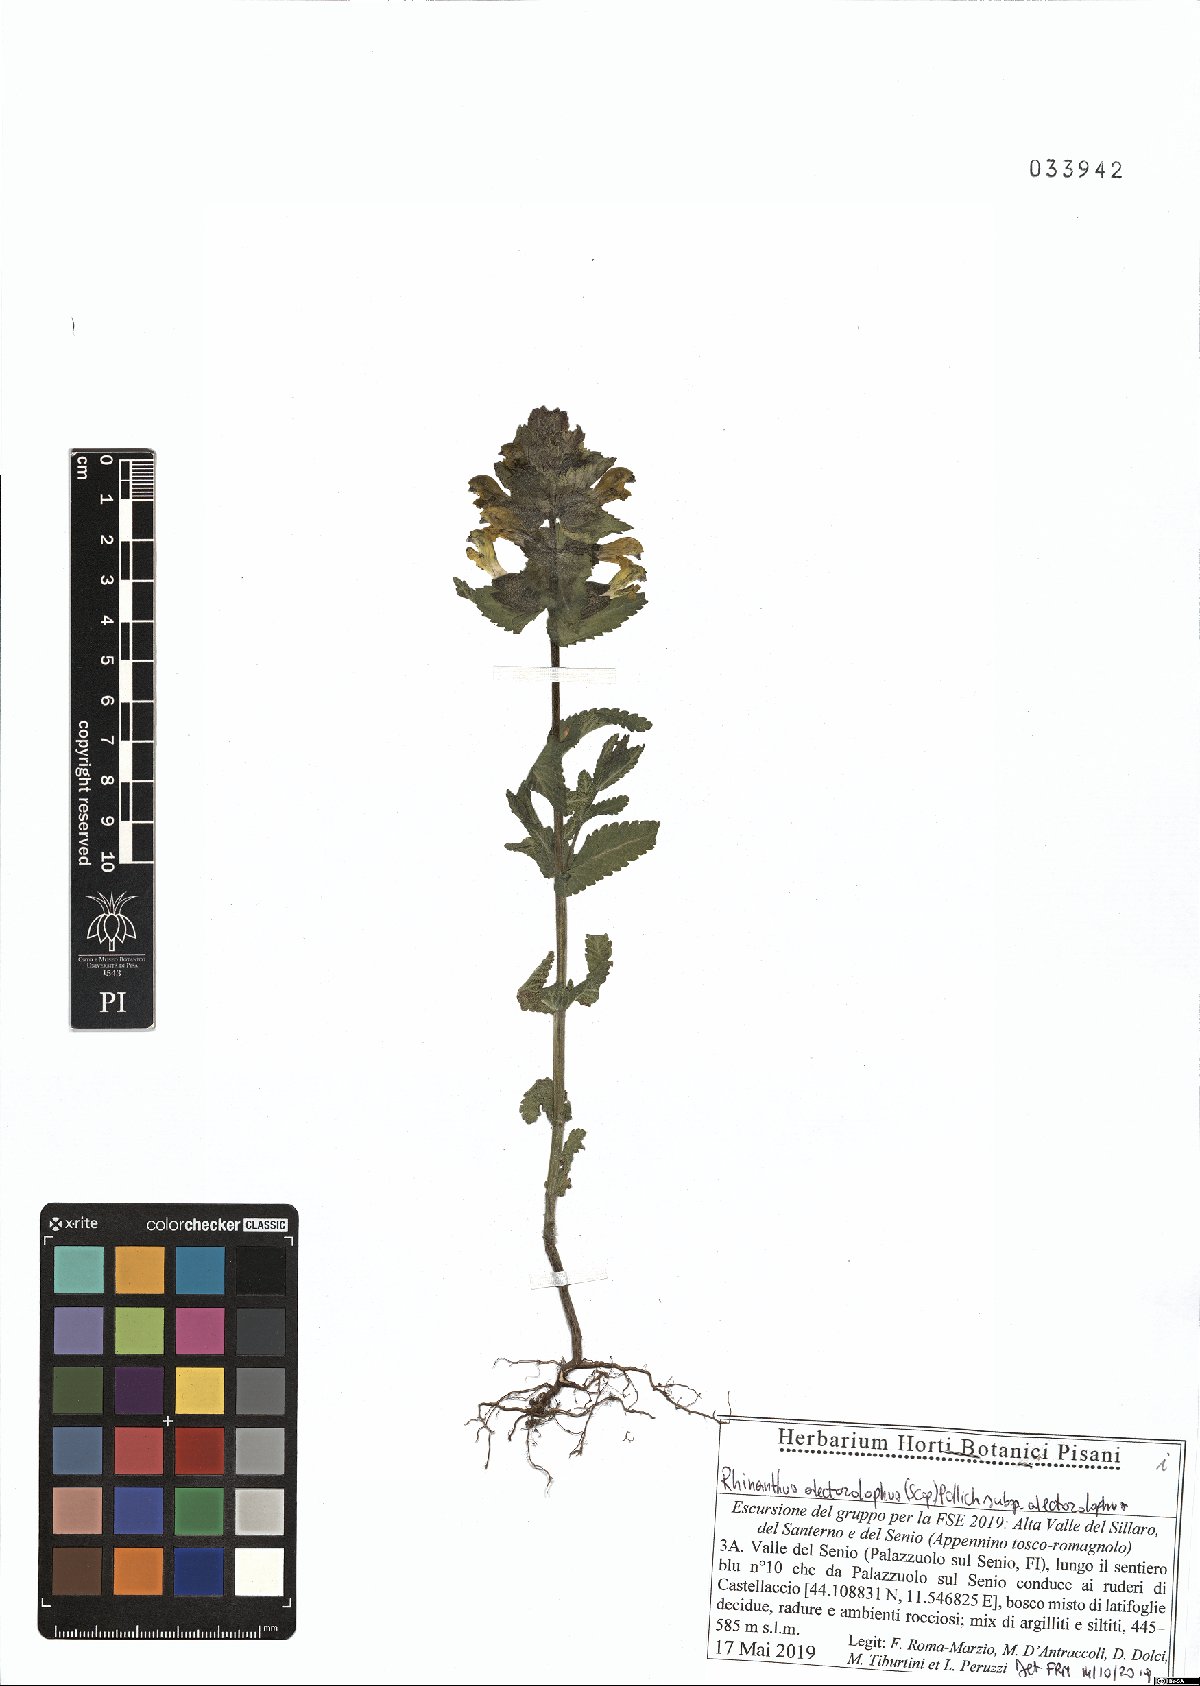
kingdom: Plantae
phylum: Tracheophyta
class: Magnoliopsida
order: Lamiales
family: Orobanchaceae
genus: Rhinanthus
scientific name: Rhinanthus alectorolophus
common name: Greater yellow-rattle
